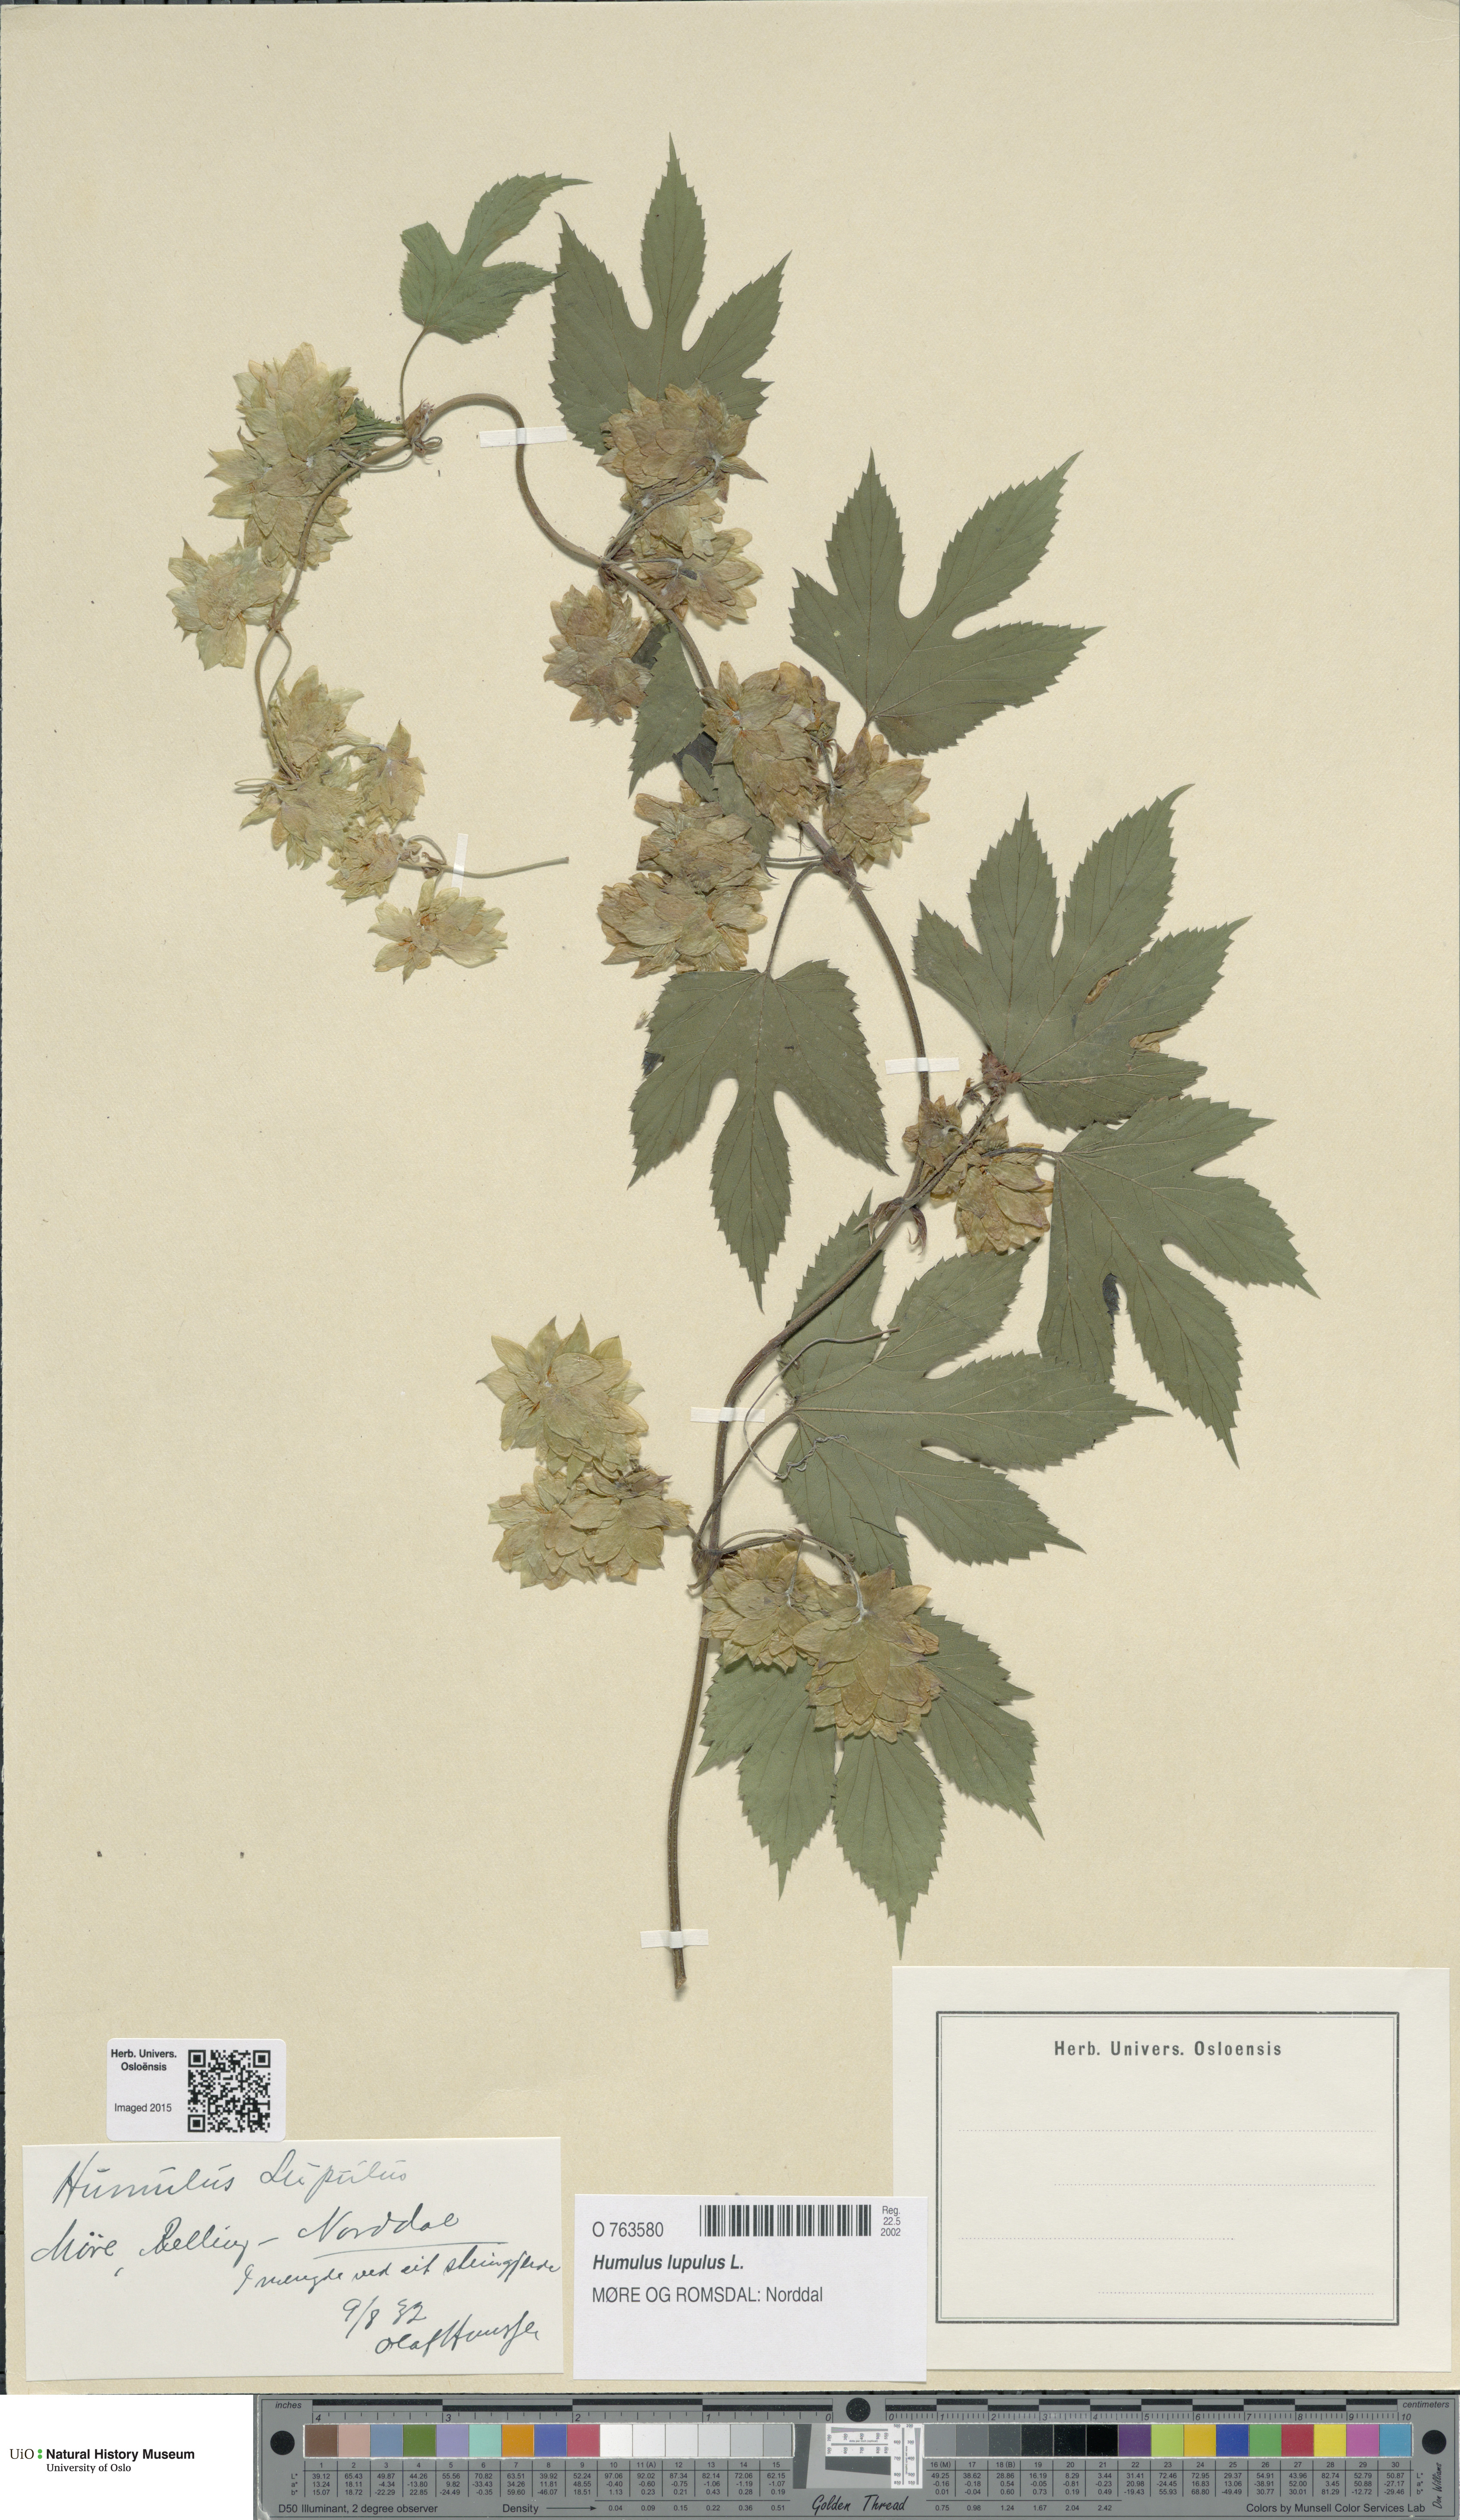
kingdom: Plantae
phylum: Tracheophyta
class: Magnoliopsida
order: Rosales
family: Cannabaceae
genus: Humulus
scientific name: Humulus lupulus
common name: Hop
